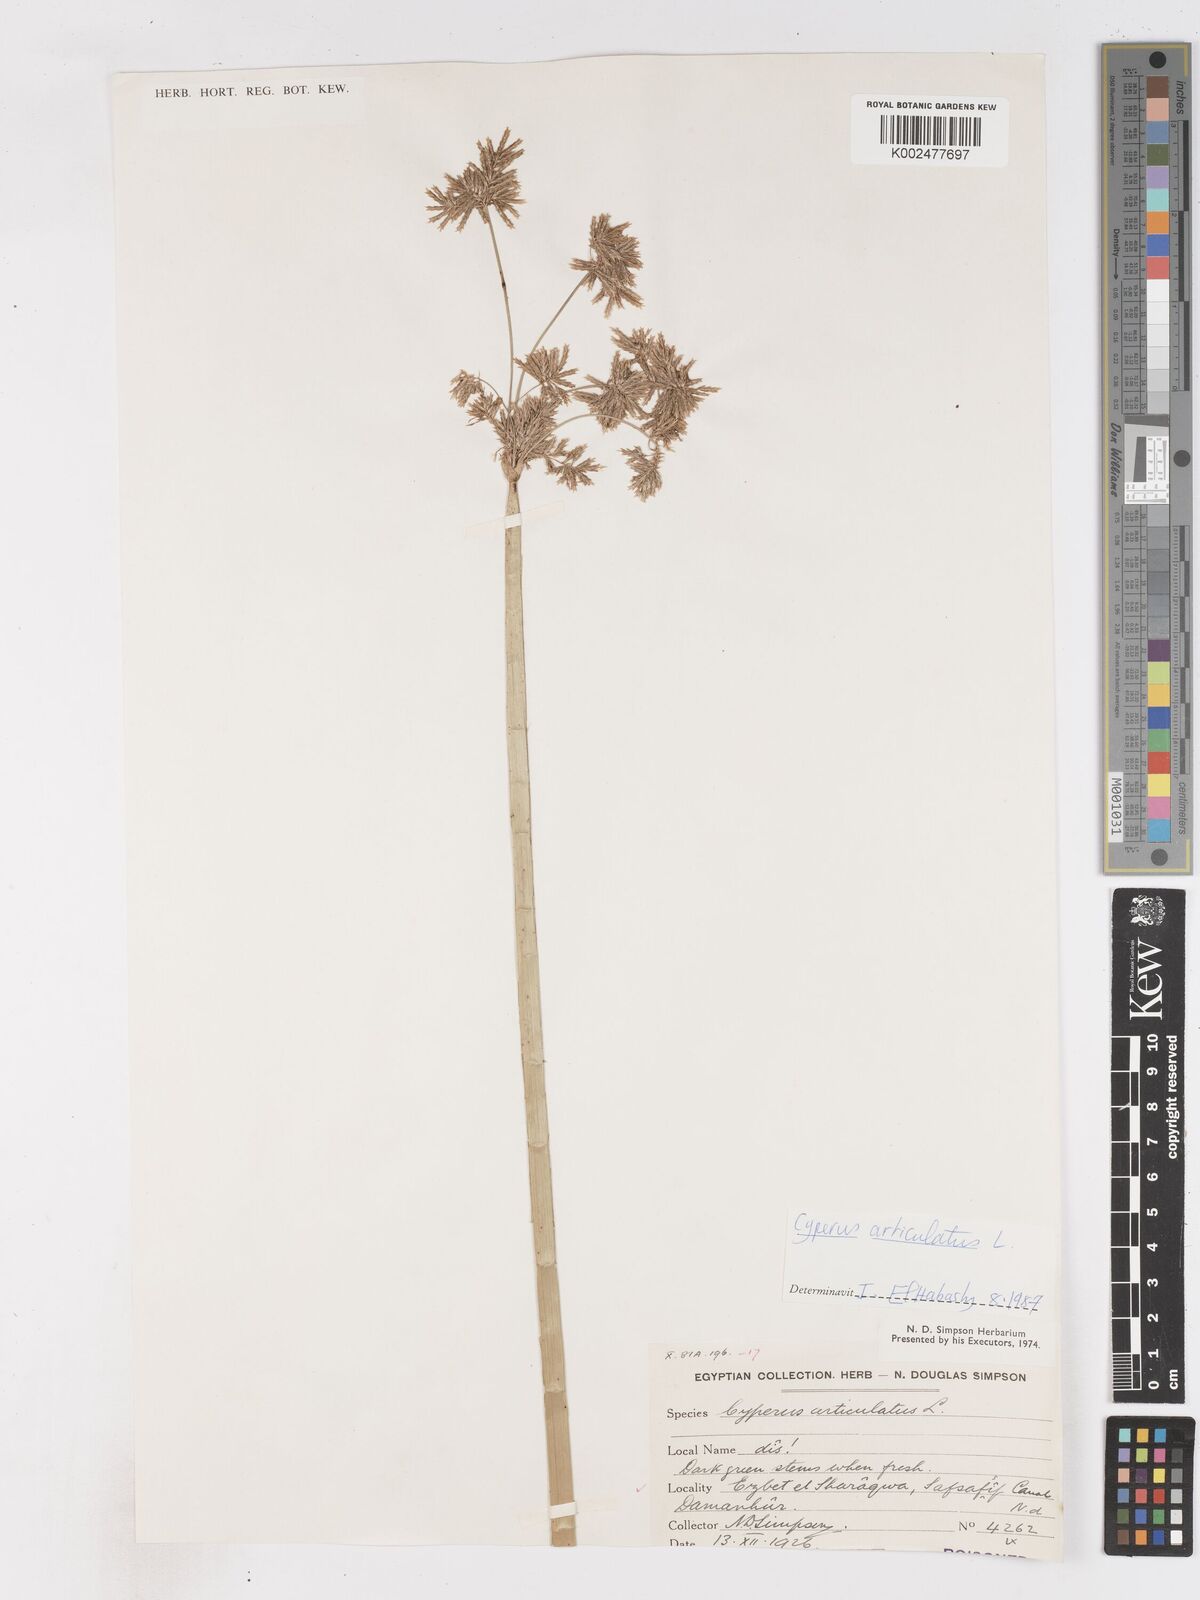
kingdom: Plantae
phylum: Tracheophyta
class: Liliopsida
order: Poales
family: Cyperaceae
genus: Cyperus
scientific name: Cyperus articulatus
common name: Jointed flatsedge
